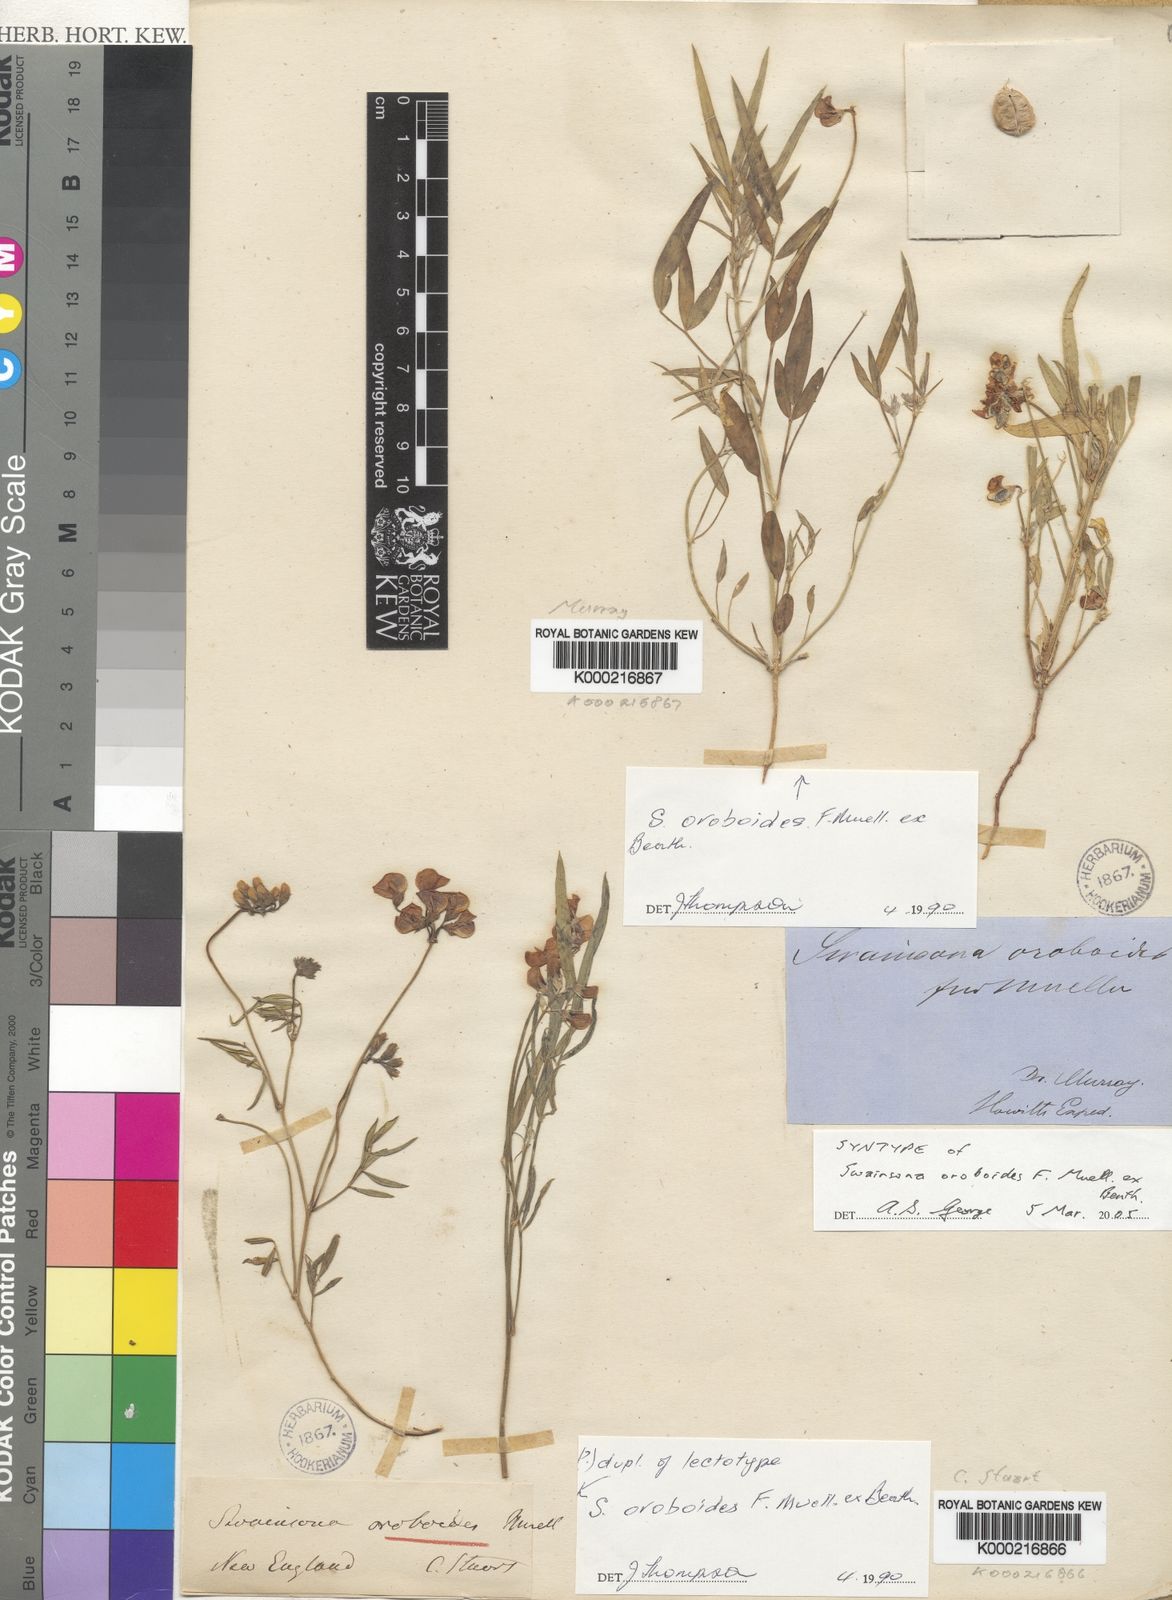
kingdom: Plantae
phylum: Tracheophyta
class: Magnoliopsida
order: Fabales
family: Fabaceae
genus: Swainsona
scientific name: Swainsona oroboides
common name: Variable swainsona
